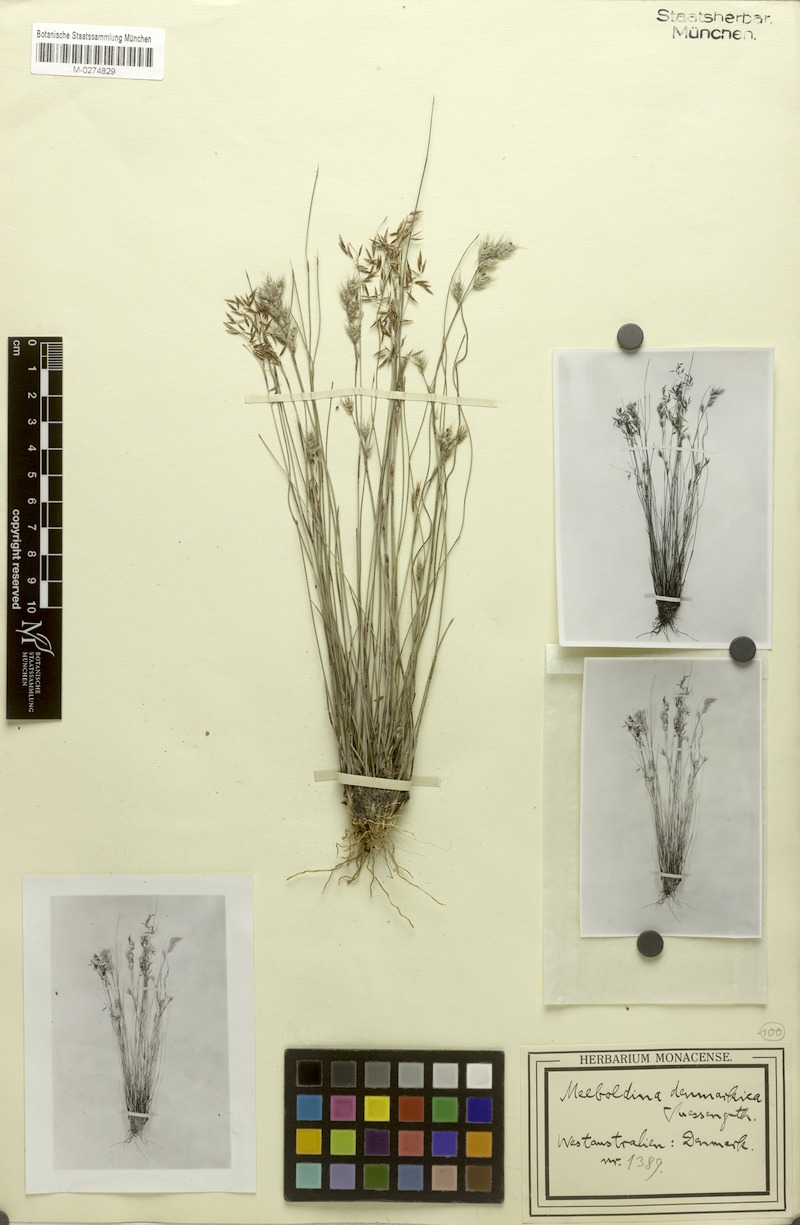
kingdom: Plantae
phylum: Tracheophyta
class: Liliopsida
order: Poales
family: Restionaceae
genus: Leptocarpus
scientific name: Leptocarpus denmarkicus
